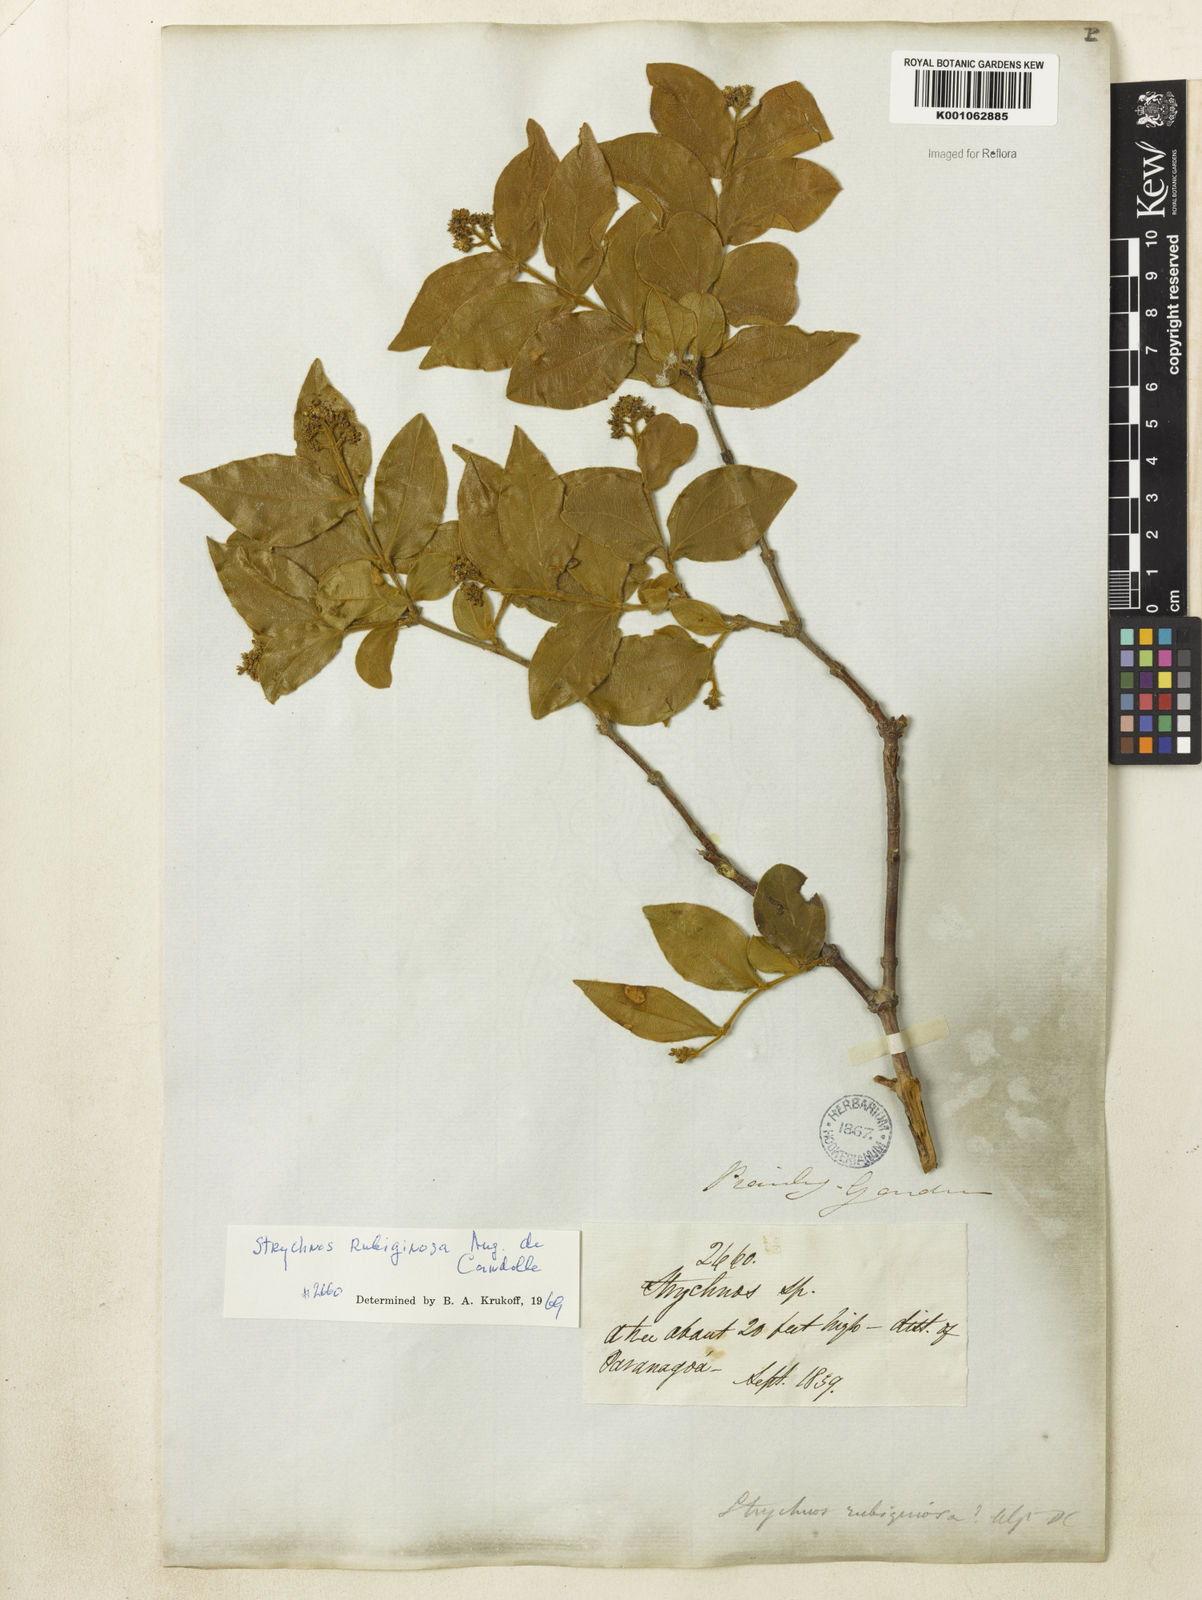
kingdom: Plantae
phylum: Tracheophyta
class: Magnoliopsida
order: Gentianales
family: Loganiaceae
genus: Strychnos
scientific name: Strychnos rubiginosa
